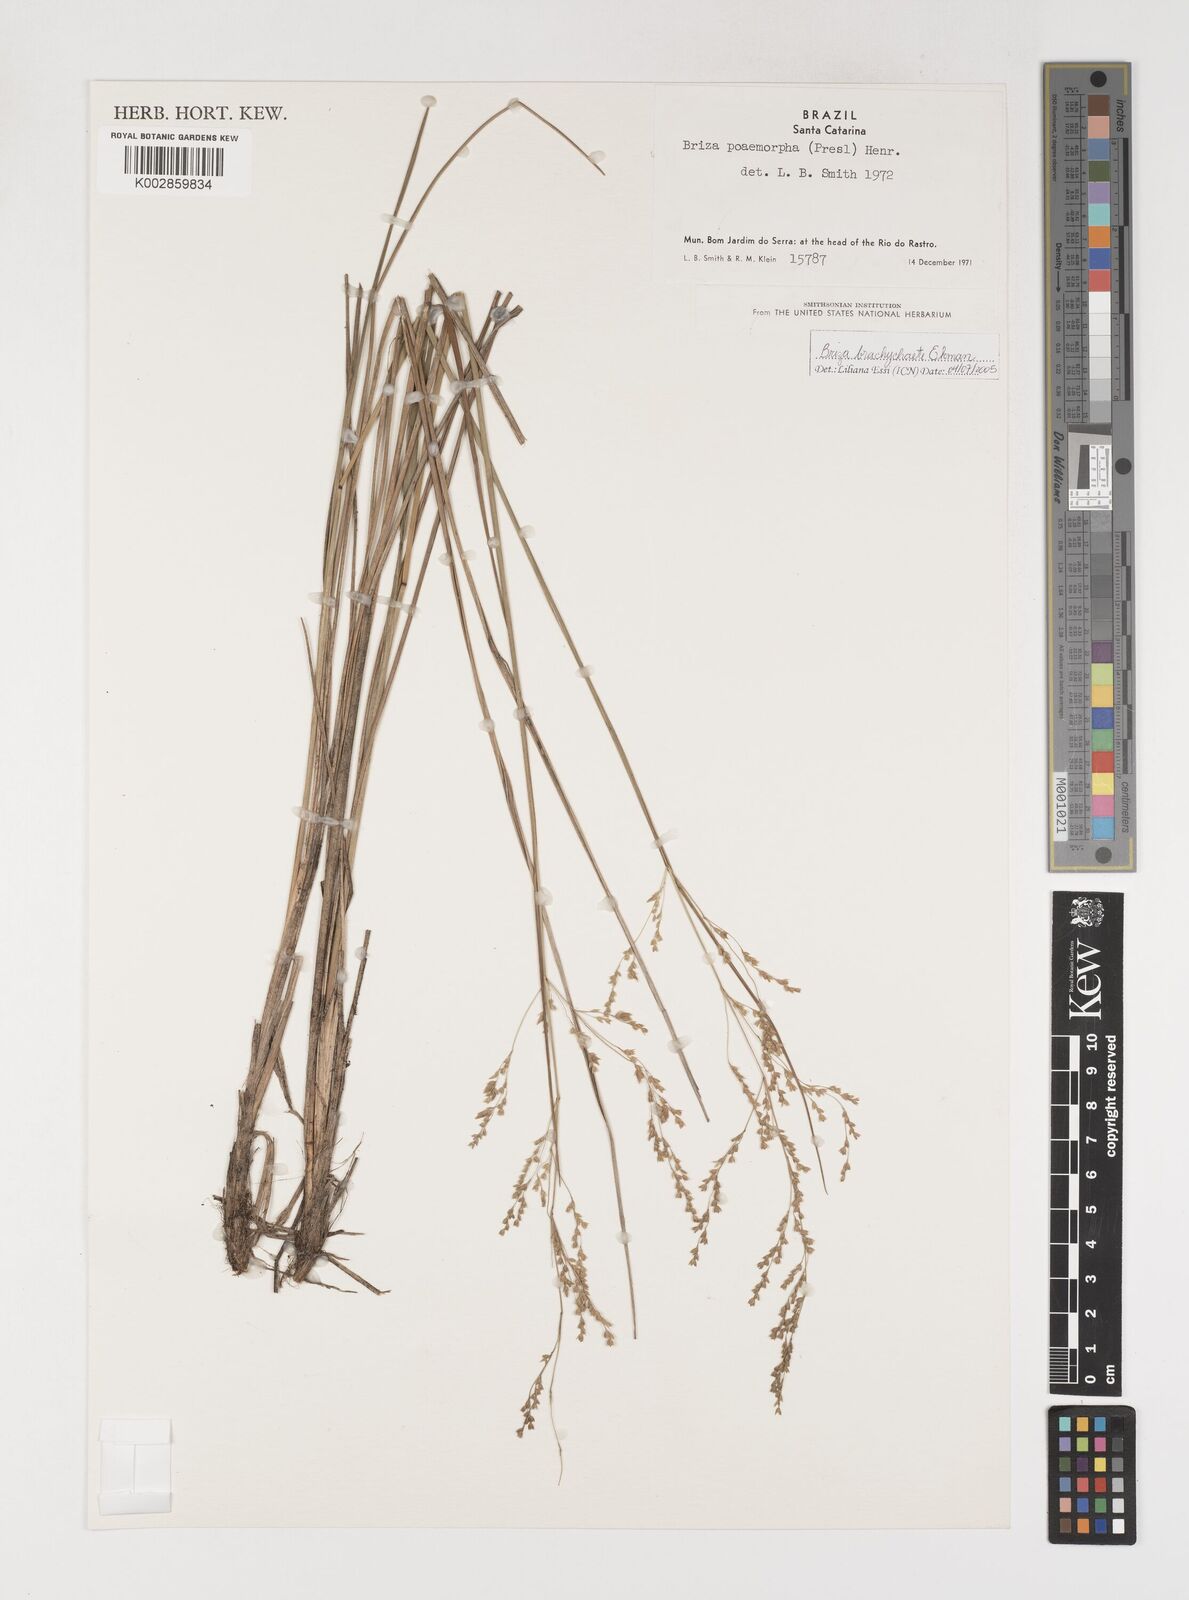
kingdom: Plantae
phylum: Tracheophyta
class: Liliopsida
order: Poales
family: Poaceae
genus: Microbriza
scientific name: Microbriza poimorpha
